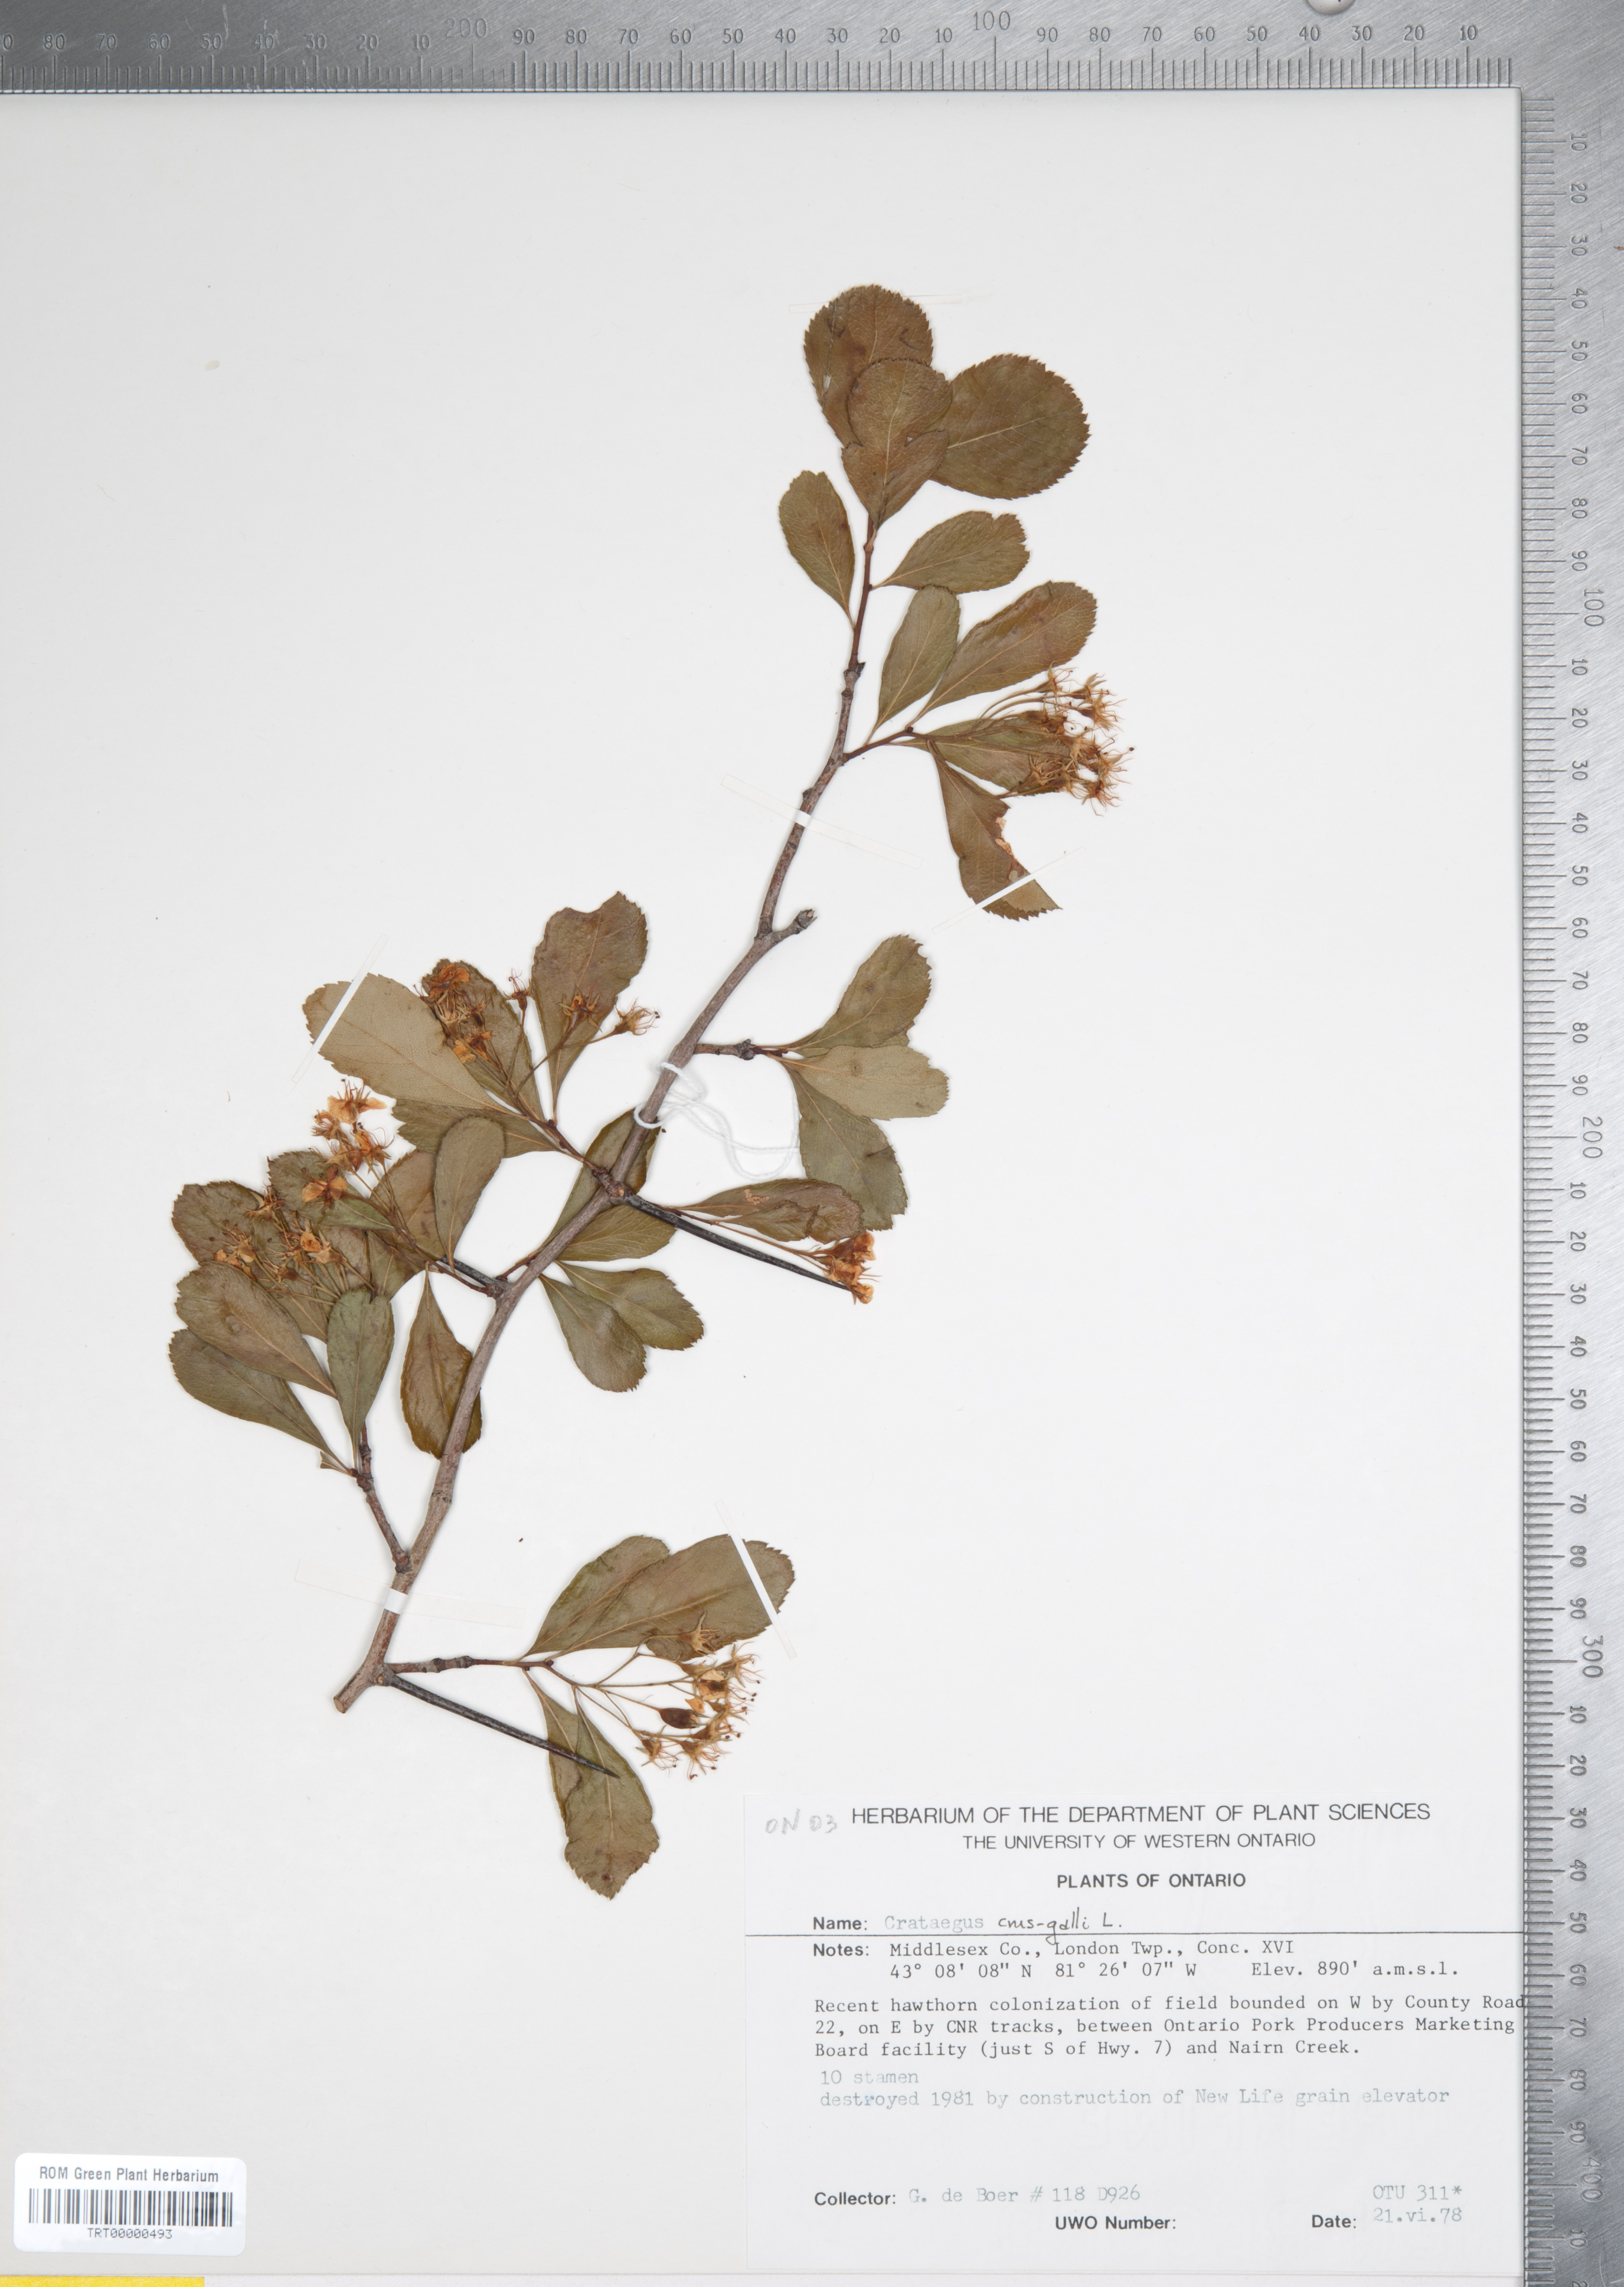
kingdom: Plantae
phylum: Tracheophyta
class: Magnoliopsida
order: Rosales
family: Rosaceae
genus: Crataegus
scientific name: Crataegus crus-galli
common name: Cockspurthorn
